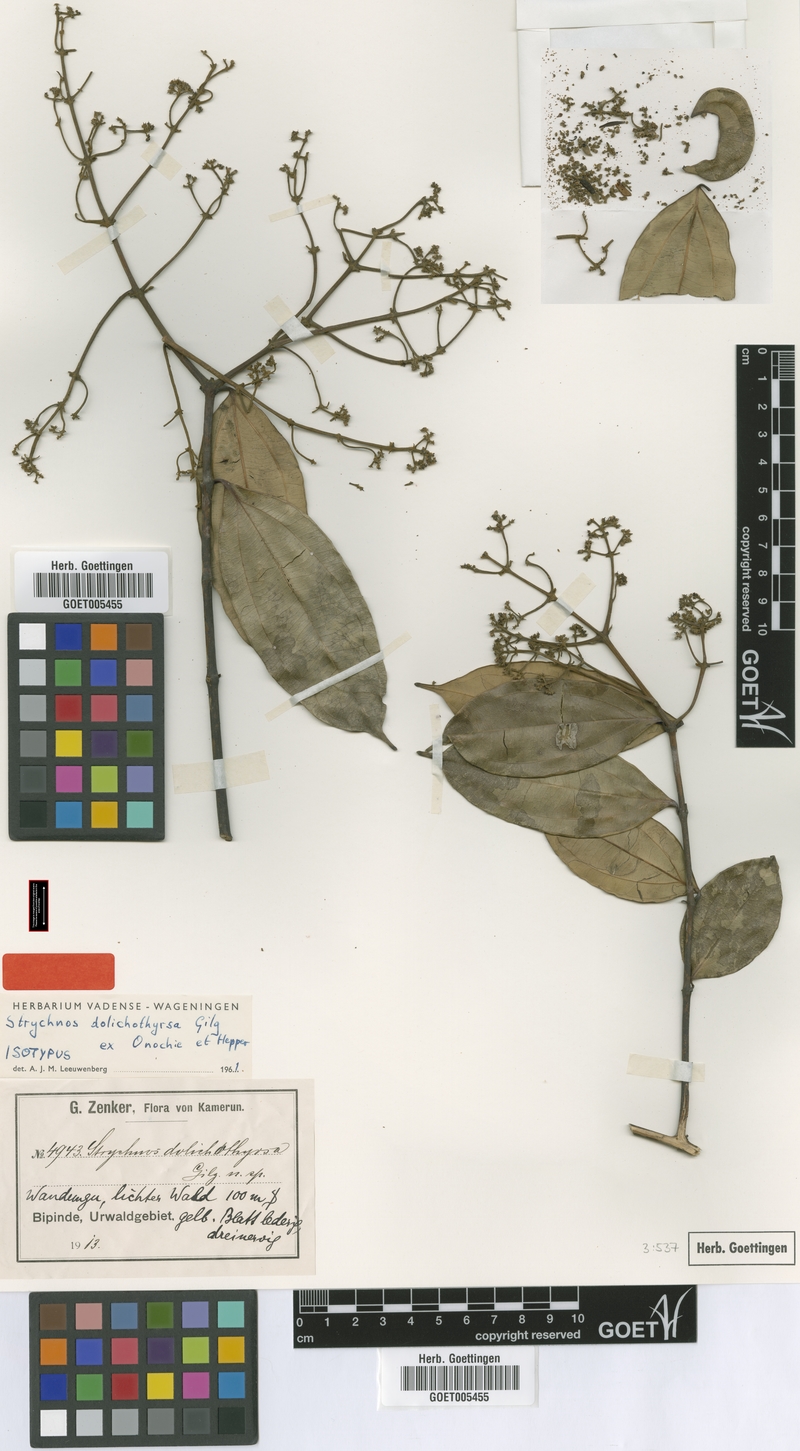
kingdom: Plantae
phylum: Tracheophyta
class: Magnoliopsida
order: Gentianales
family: Loganiaceae
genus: Strychnos
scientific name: Strychnos dolichothyrsa
